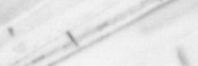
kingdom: Animalia
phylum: Chordata
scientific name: Chordata
